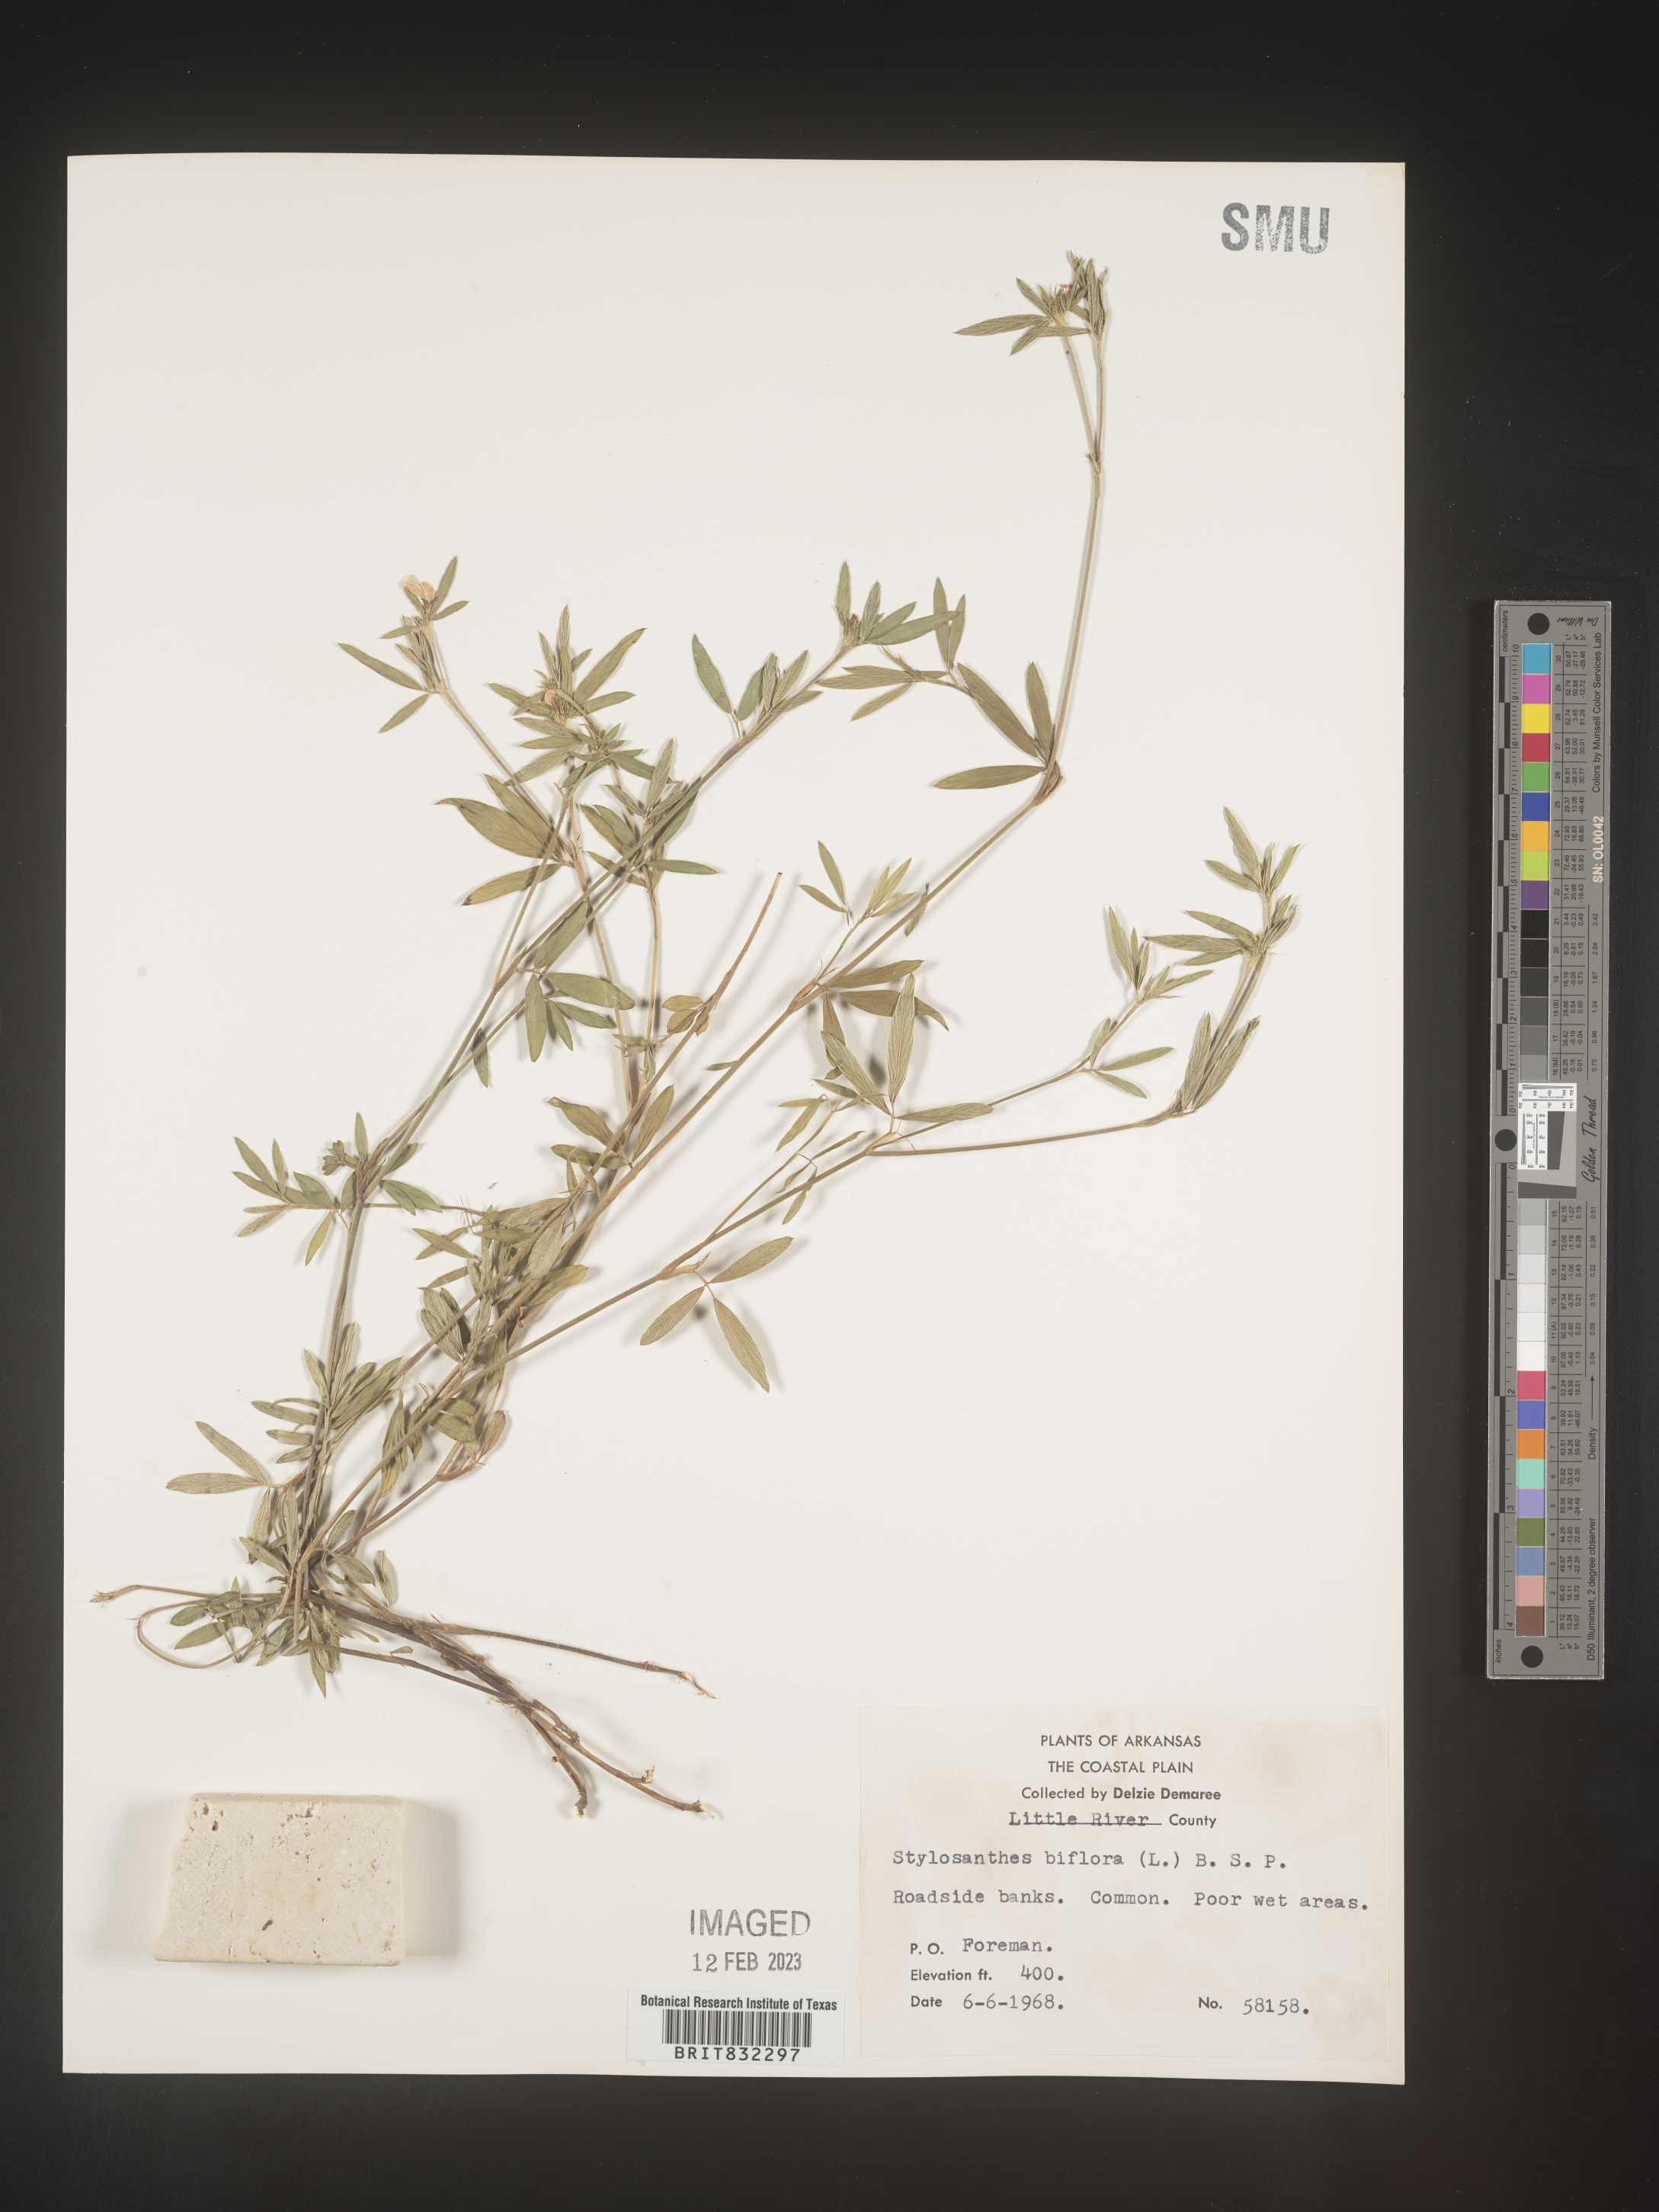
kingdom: Plantae
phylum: Tracheophyta
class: Magnoliopsida
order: Fabales
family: Fabaceae
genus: Stylosanthes
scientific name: Stylosanthes biflora
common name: Two-flower pencil-flower
